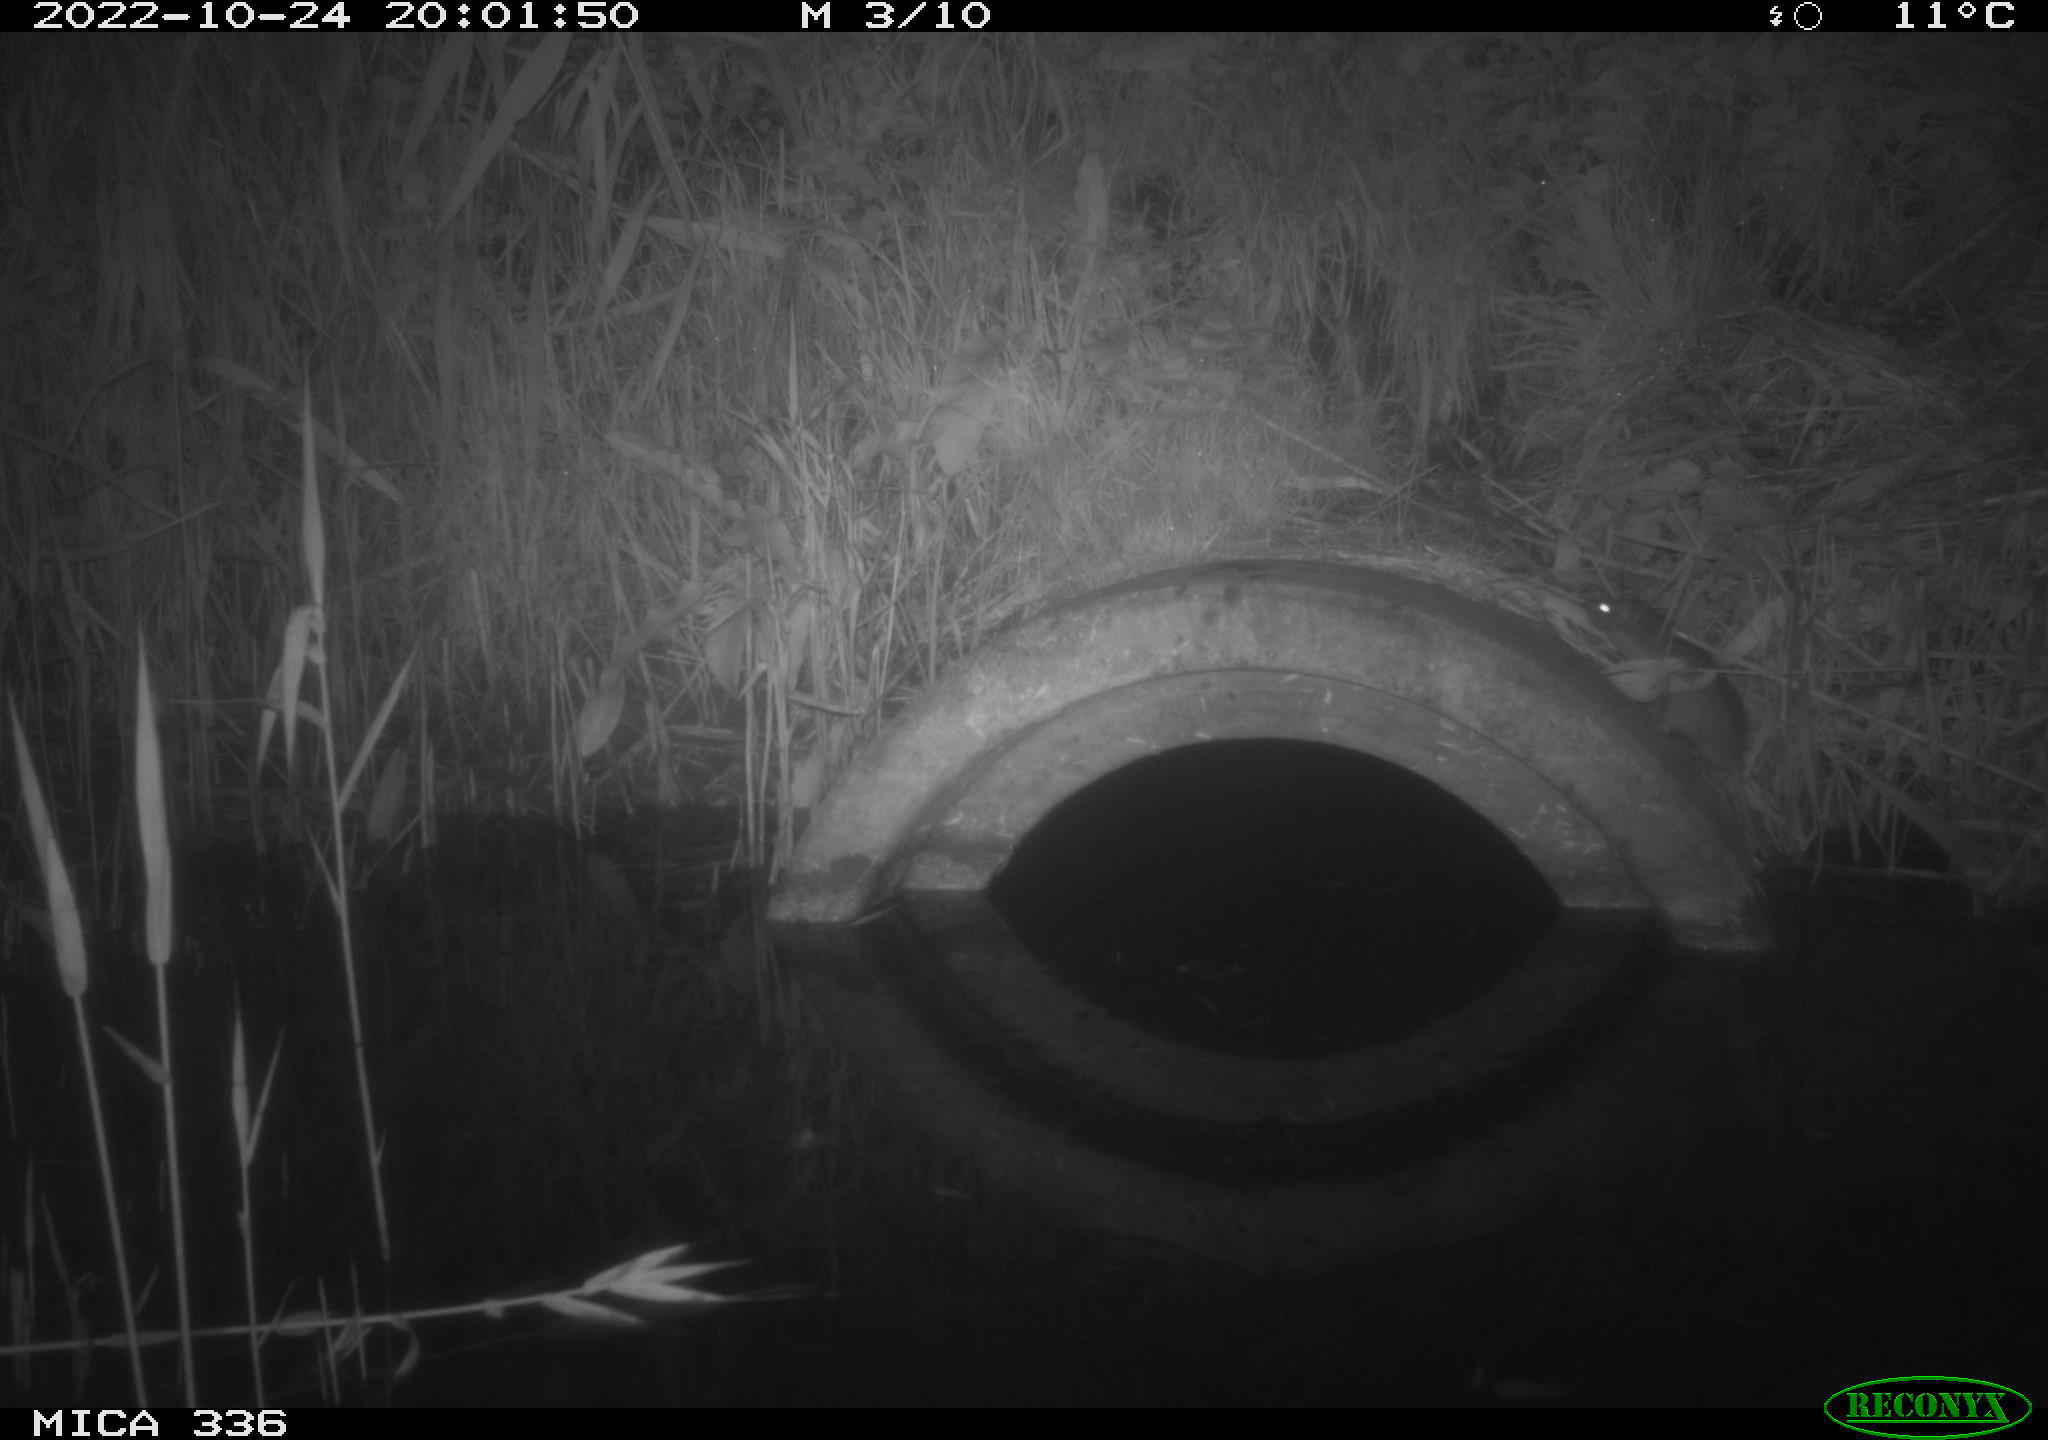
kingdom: Animalia
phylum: Chordata
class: Mammalia
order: Rodentia
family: Muridae
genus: Rattus
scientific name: Rattus norvegicus
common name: Brown rat
